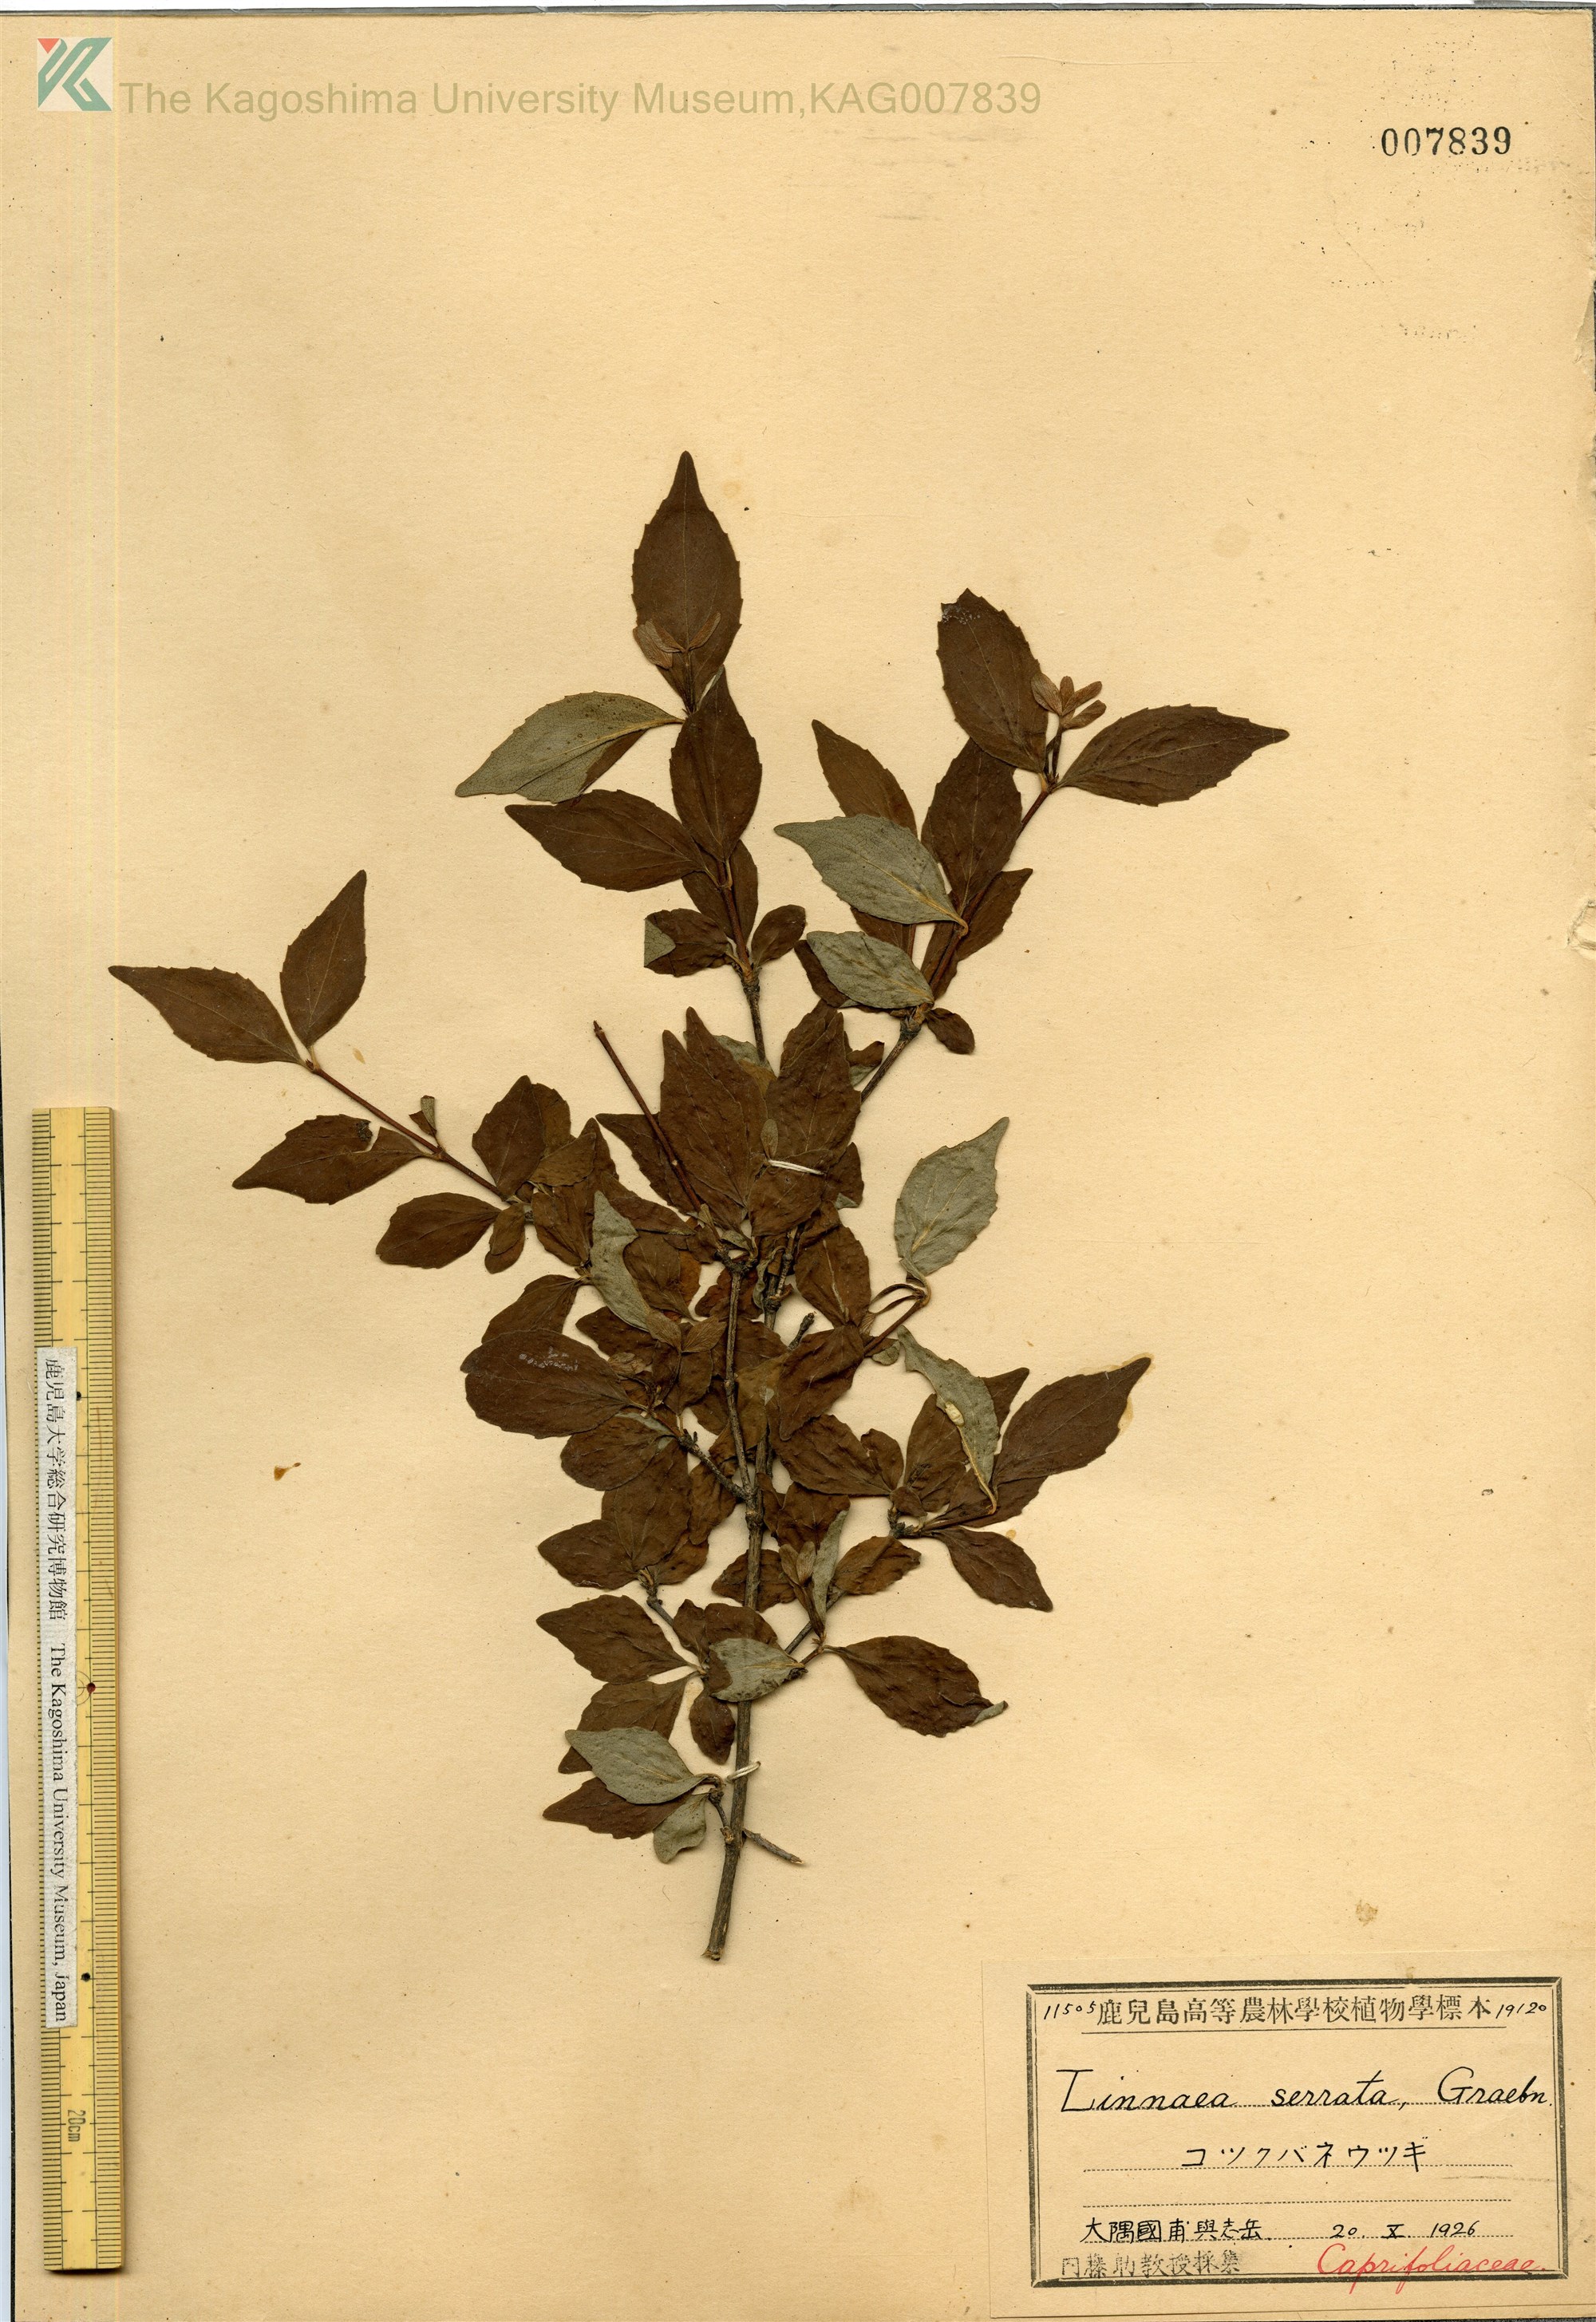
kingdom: Plantae
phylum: Tracheophyta
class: Magnoliopsida
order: Dipsacales
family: Caprifoliaceae
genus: Diabelia
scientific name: Diabelia serrata
